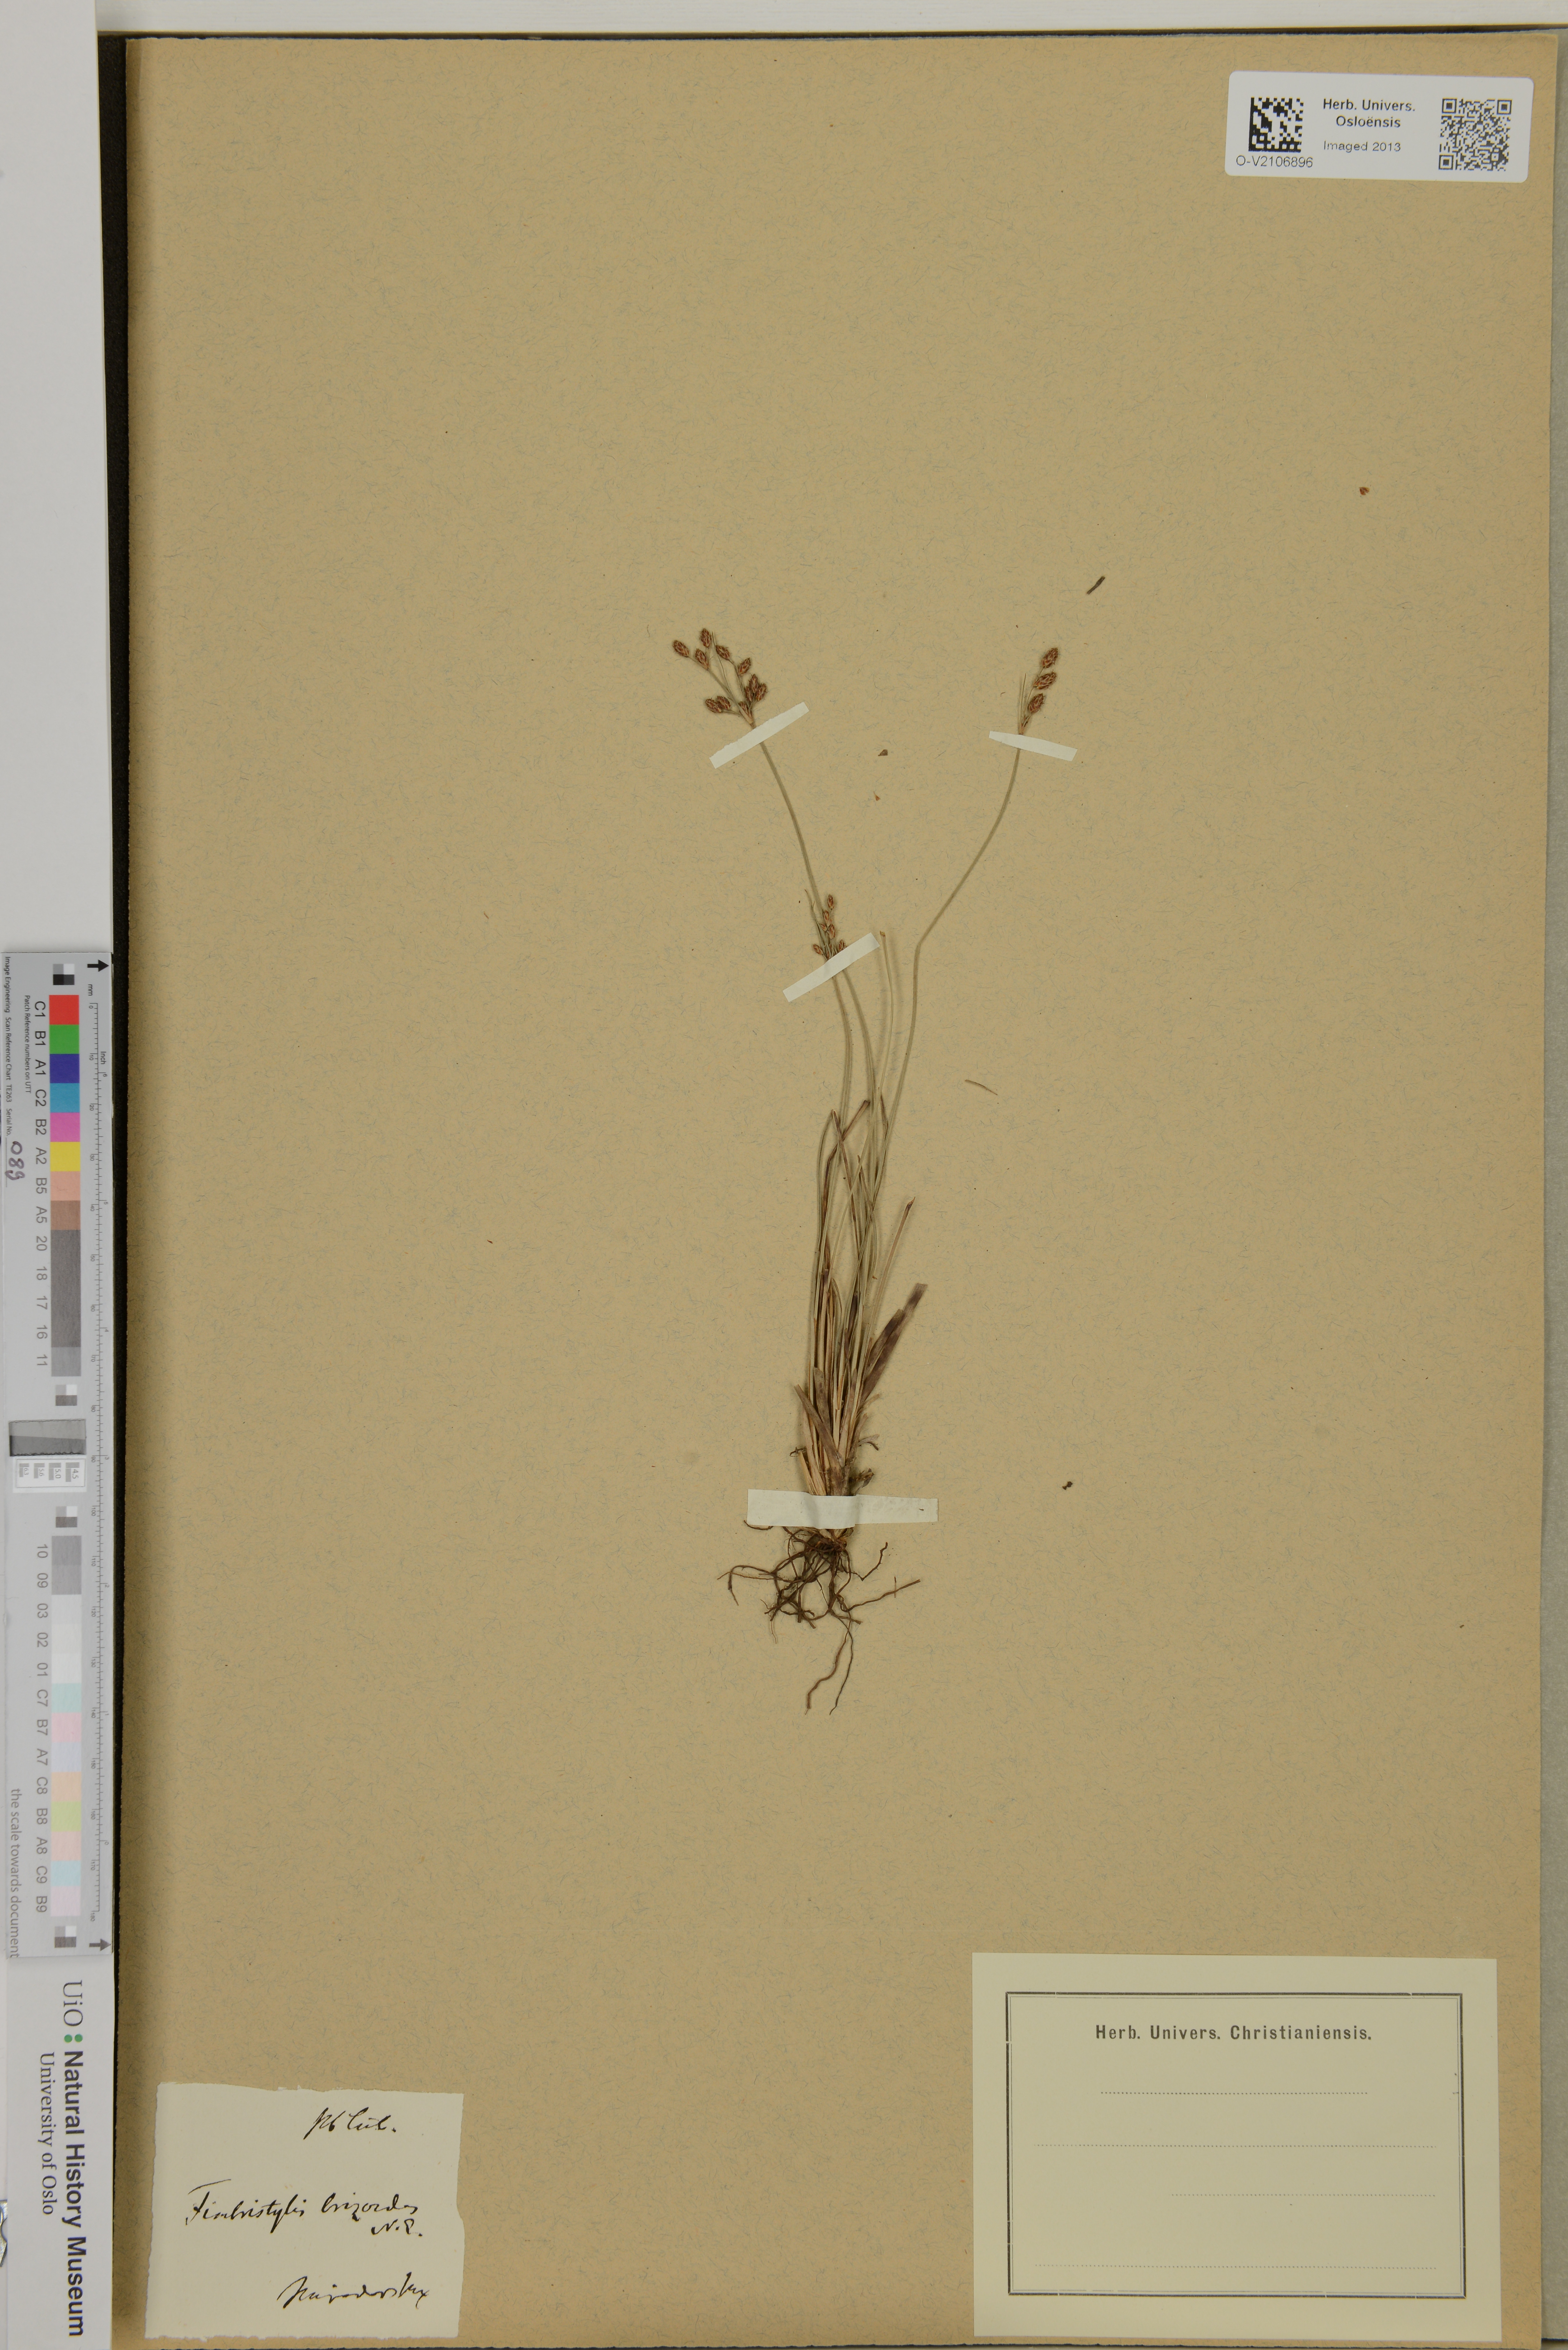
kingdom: Plantae
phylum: Tracheophyta
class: Liliopsida
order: Poales
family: Cyperaceae
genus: Fimbristylis
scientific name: Fimbristylis brizoides
